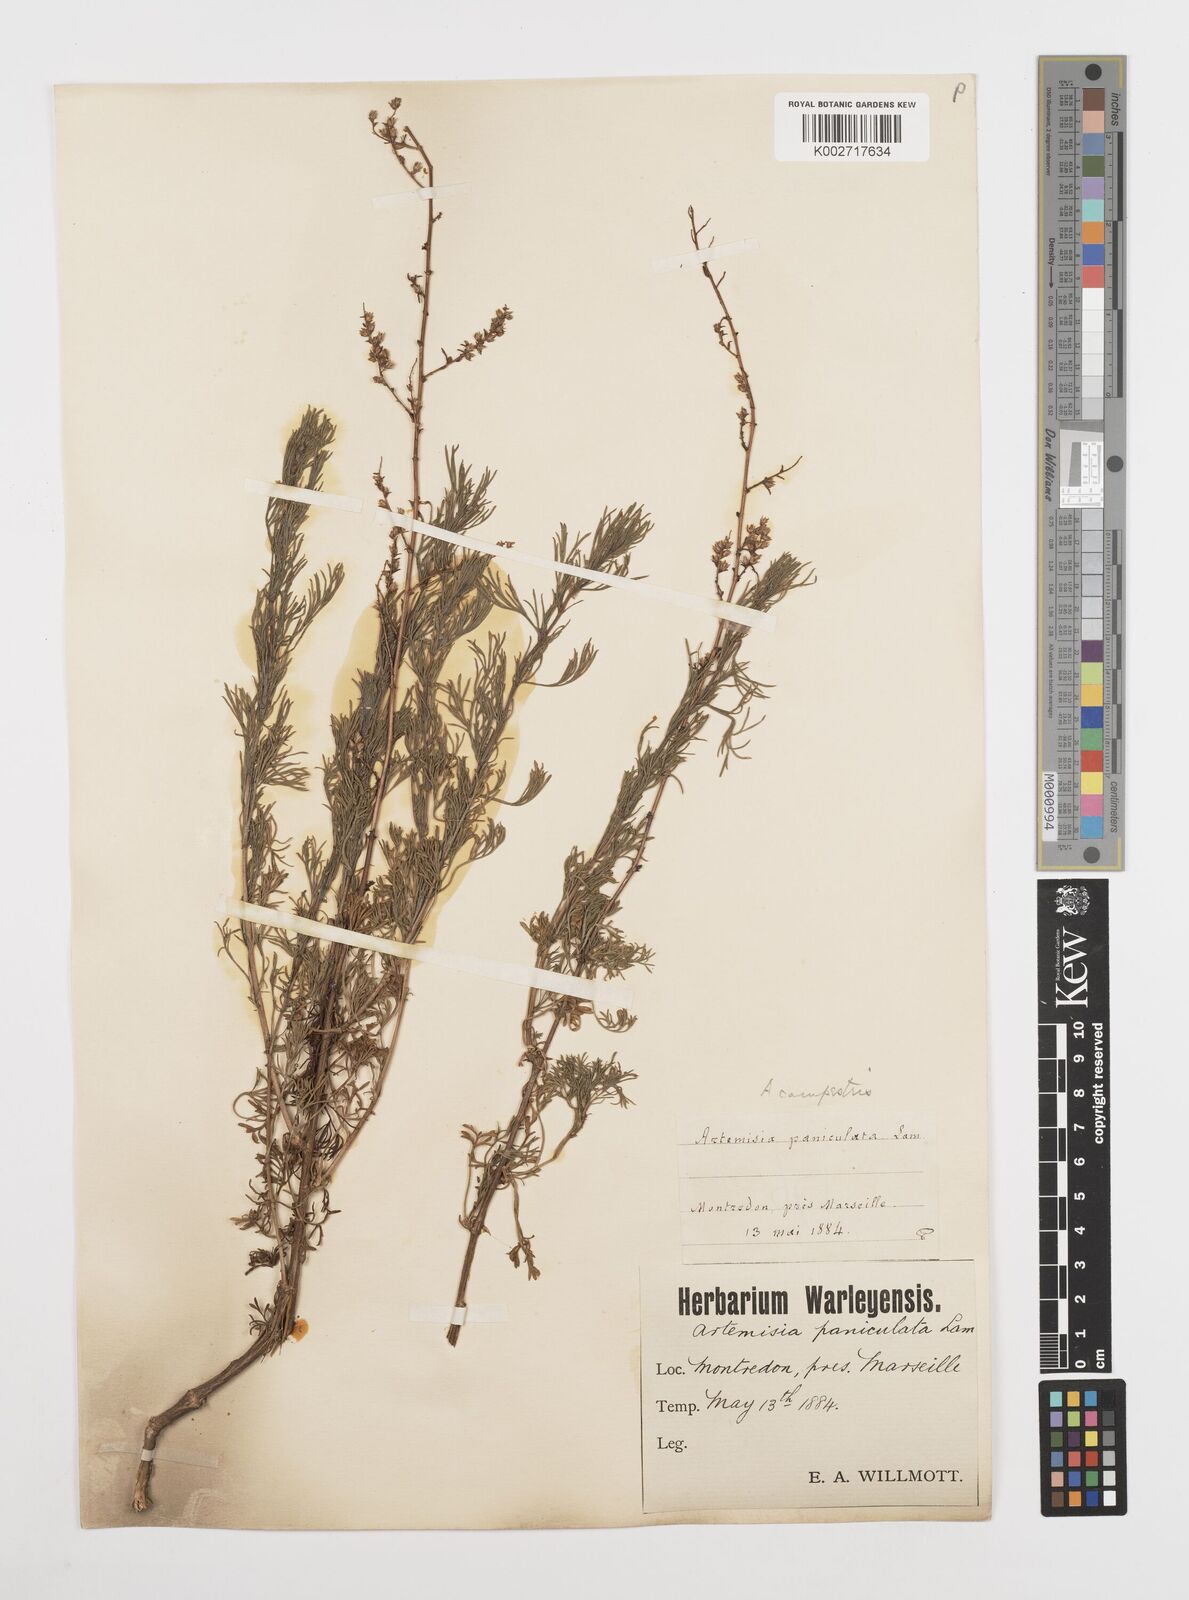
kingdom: Plantae
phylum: Tracheophyta
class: Magnoliopsida
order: Asterales
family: Asteraceae
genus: Artemisia
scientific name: Artemisia campestris
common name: Field wormwood
